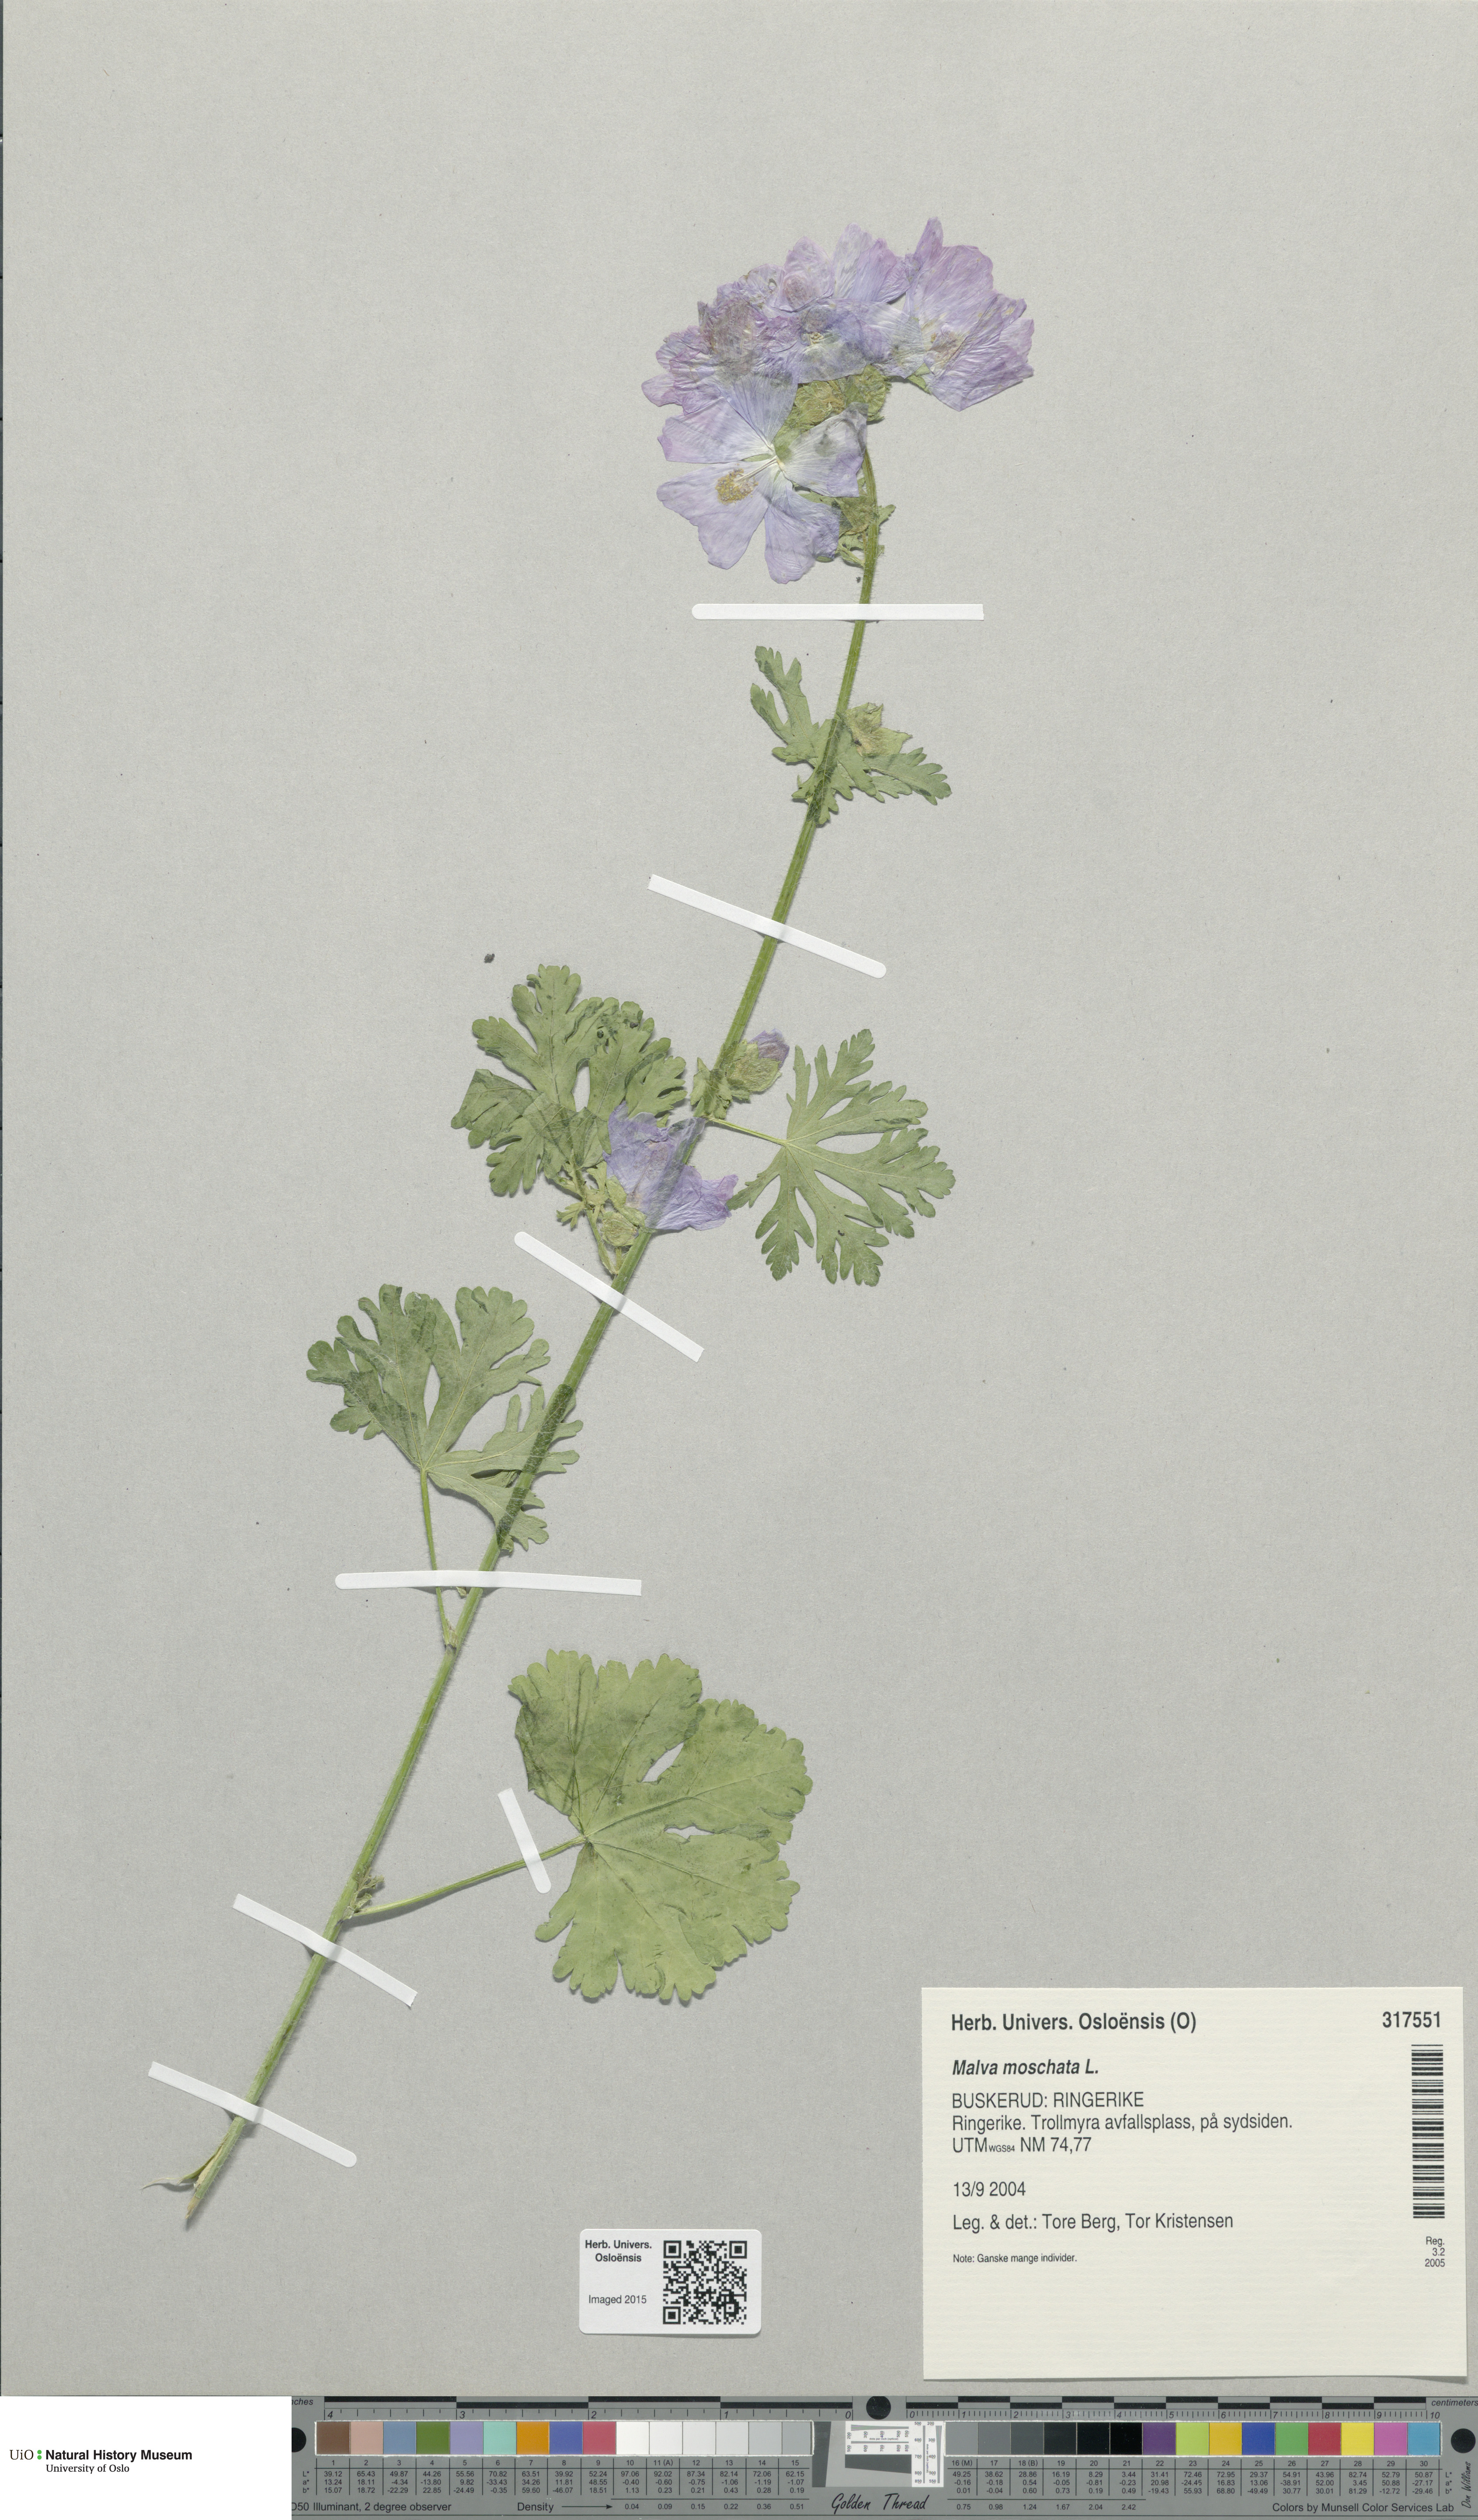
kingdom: Plantae
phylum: Tracheophyta
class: Magnoliopsida
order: Malvales
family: Malvaceae
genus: Malva
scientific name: Malva moschata
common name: Musk mallow
